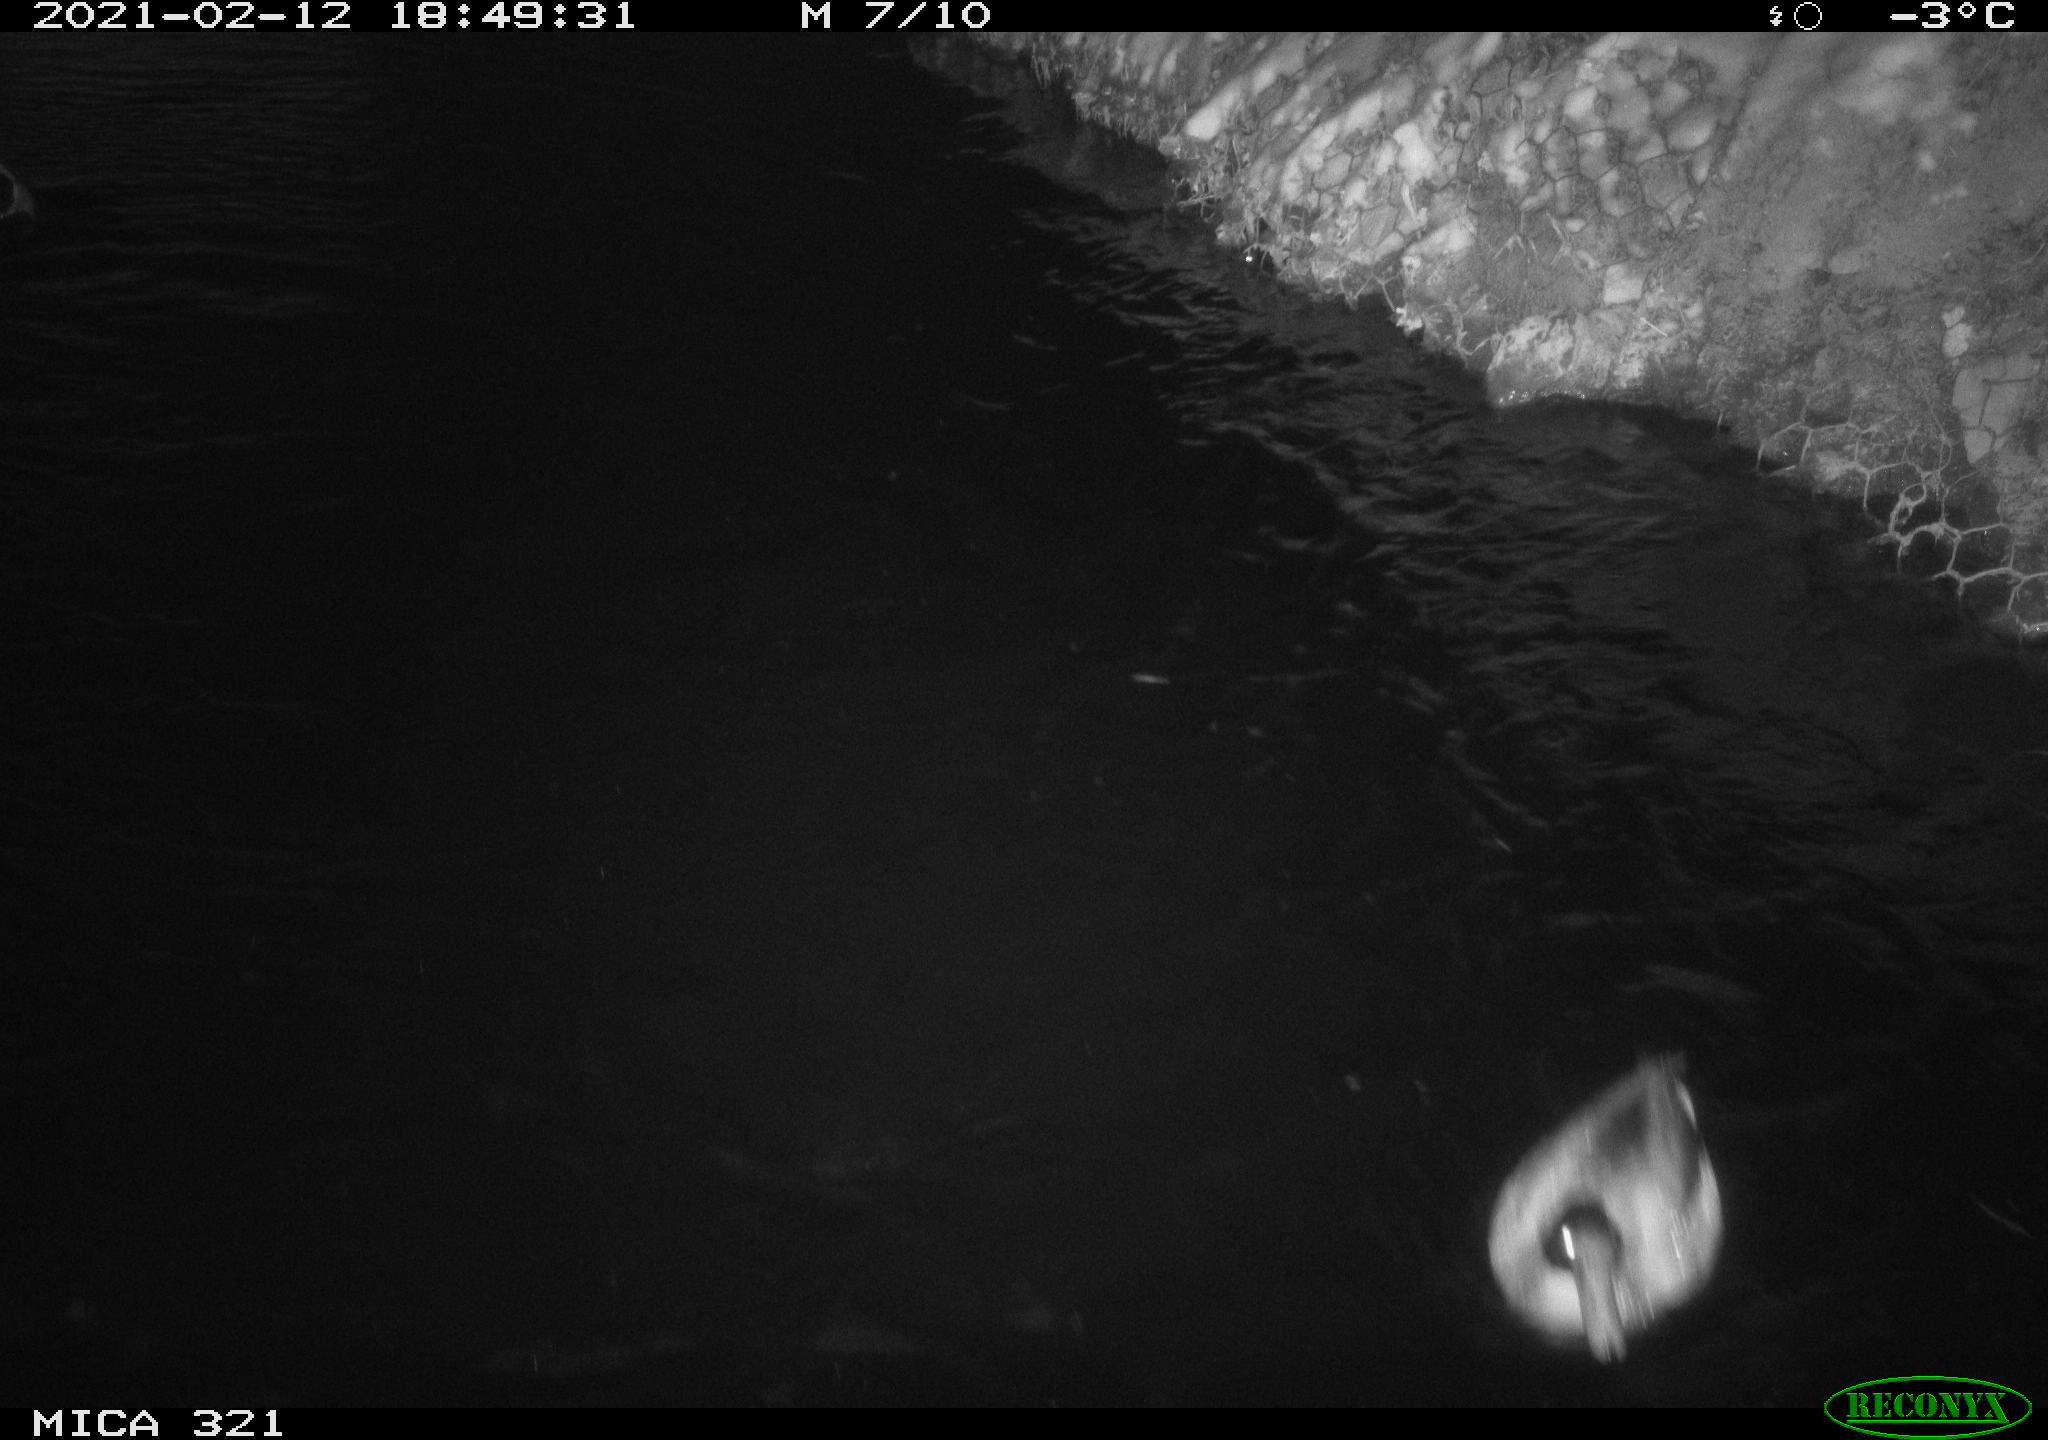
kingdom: Animalia
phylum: Chordata
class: Aves
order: Anseriformes
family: Anatidae
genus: Anas
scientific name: Anas platyrhynchos
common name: Mallard
